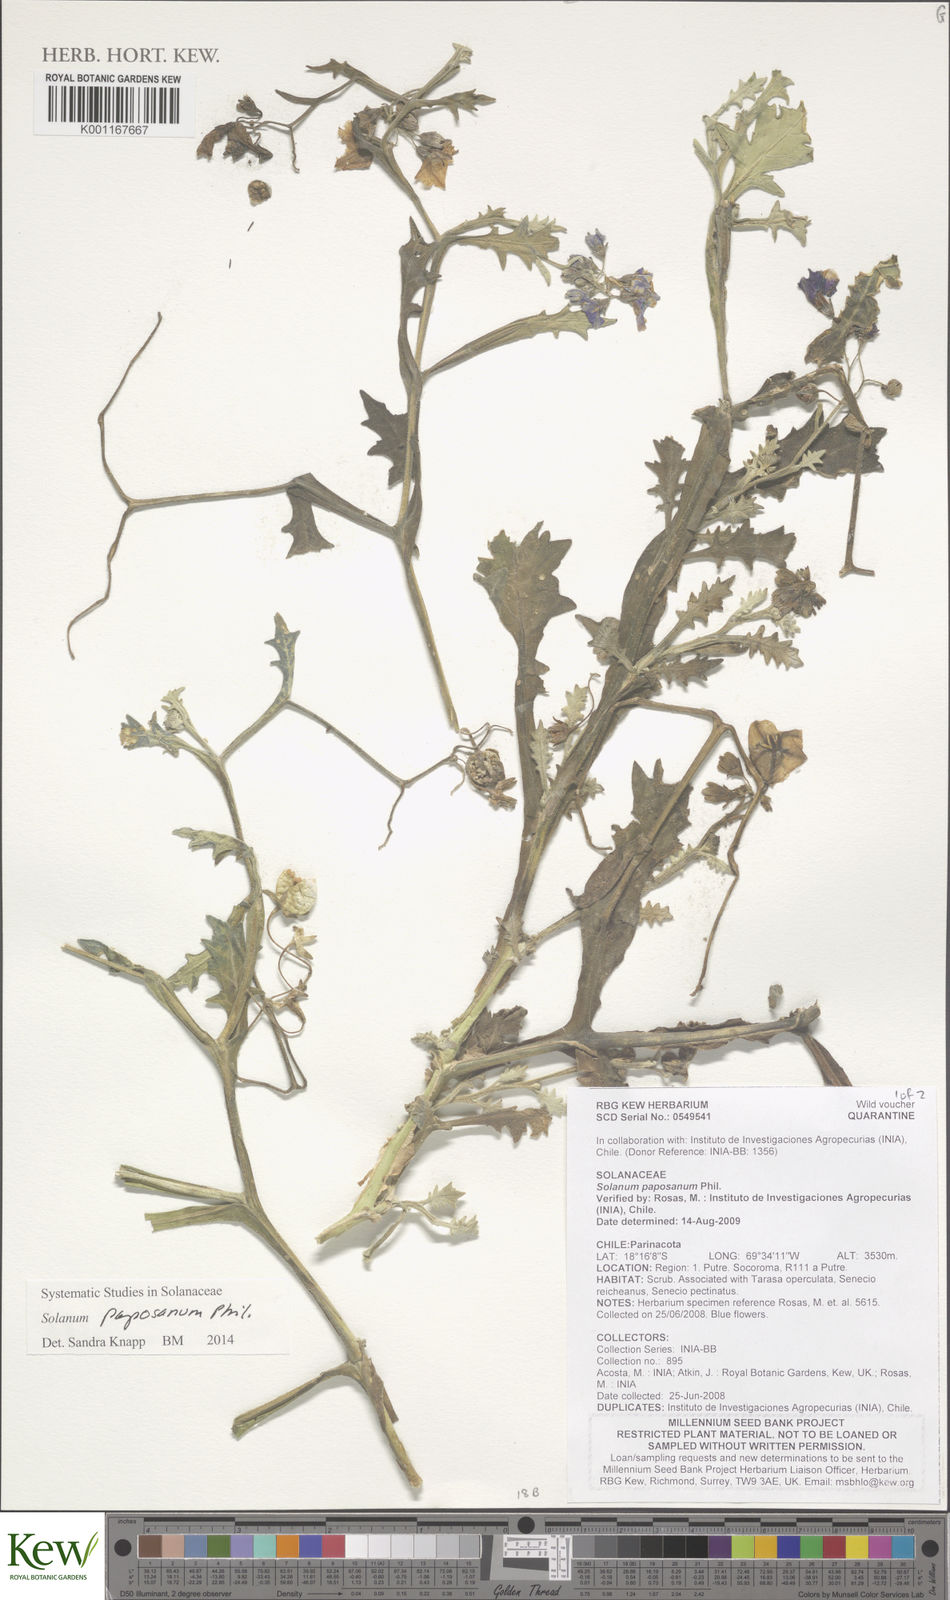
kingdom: Plantae
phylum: Tracheophyta
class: Magnoliopsida
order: Solanales
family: Solanaceae
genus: Solanum
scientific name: Solanum paposanum
